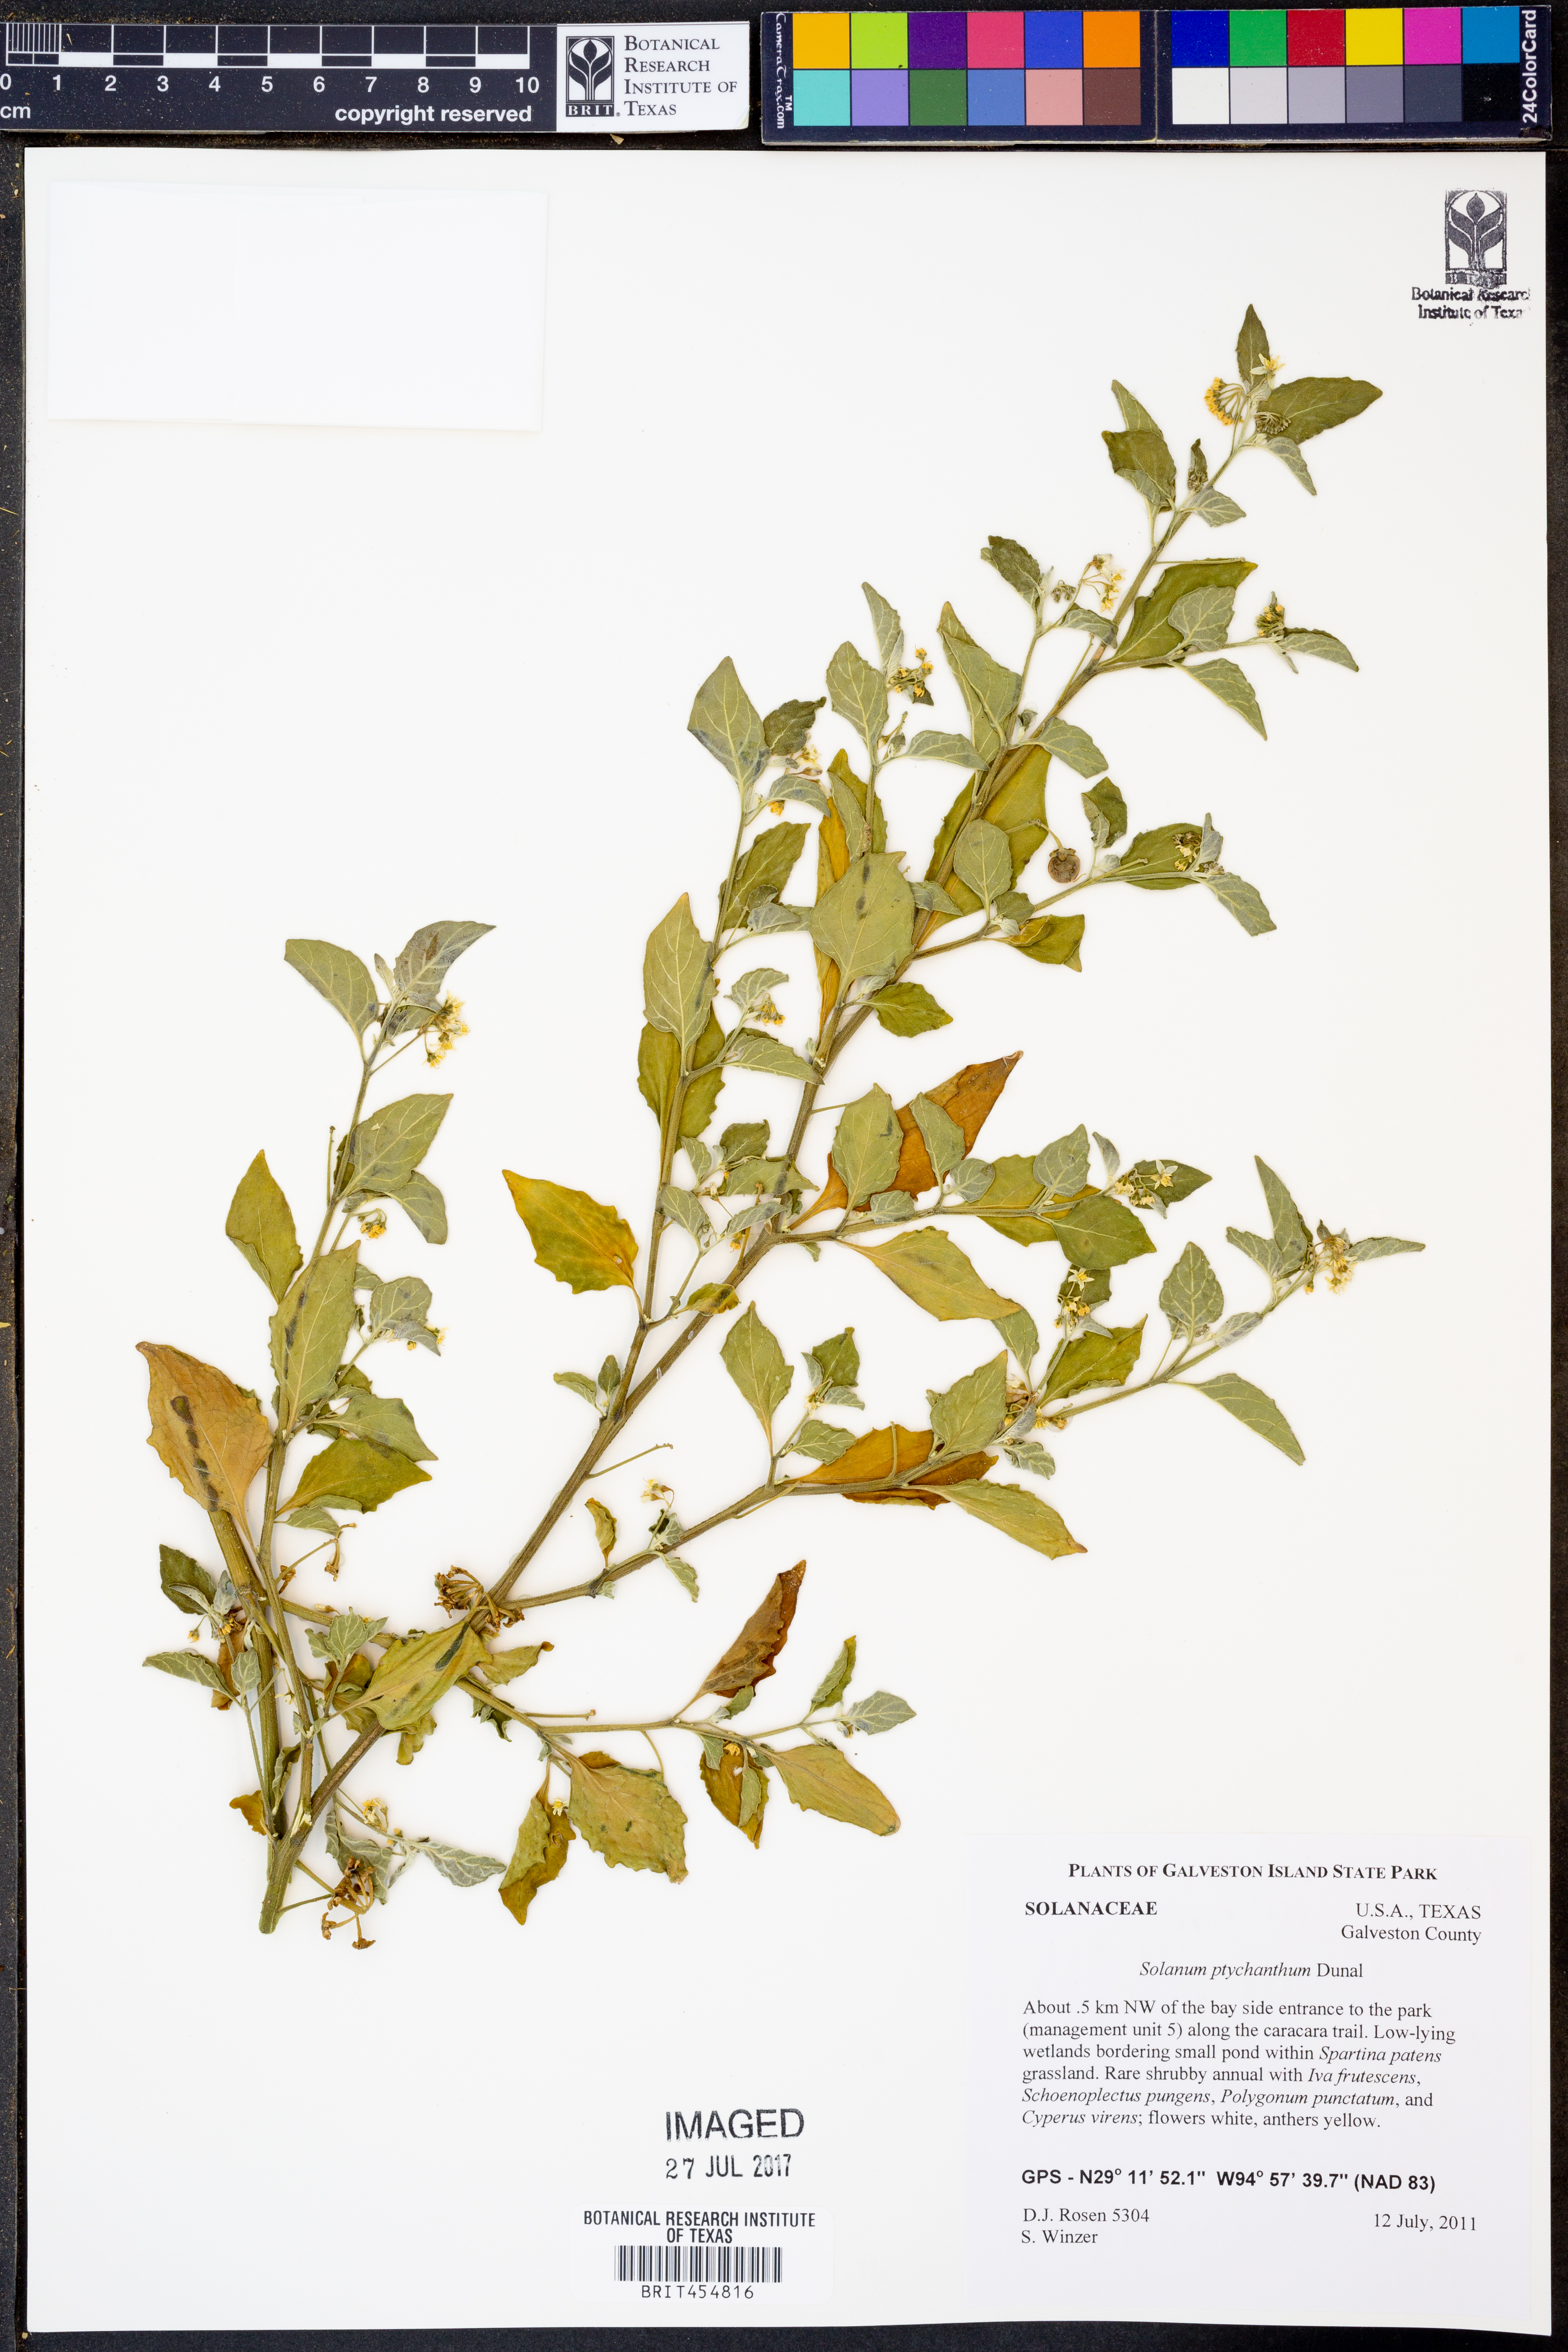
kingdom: Plantae
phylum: Tracheophyta
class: Magnoliopsida
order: Solanales
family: Solanaceae
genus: Solanum
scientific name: Solanum americanum
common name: American black nightshade
